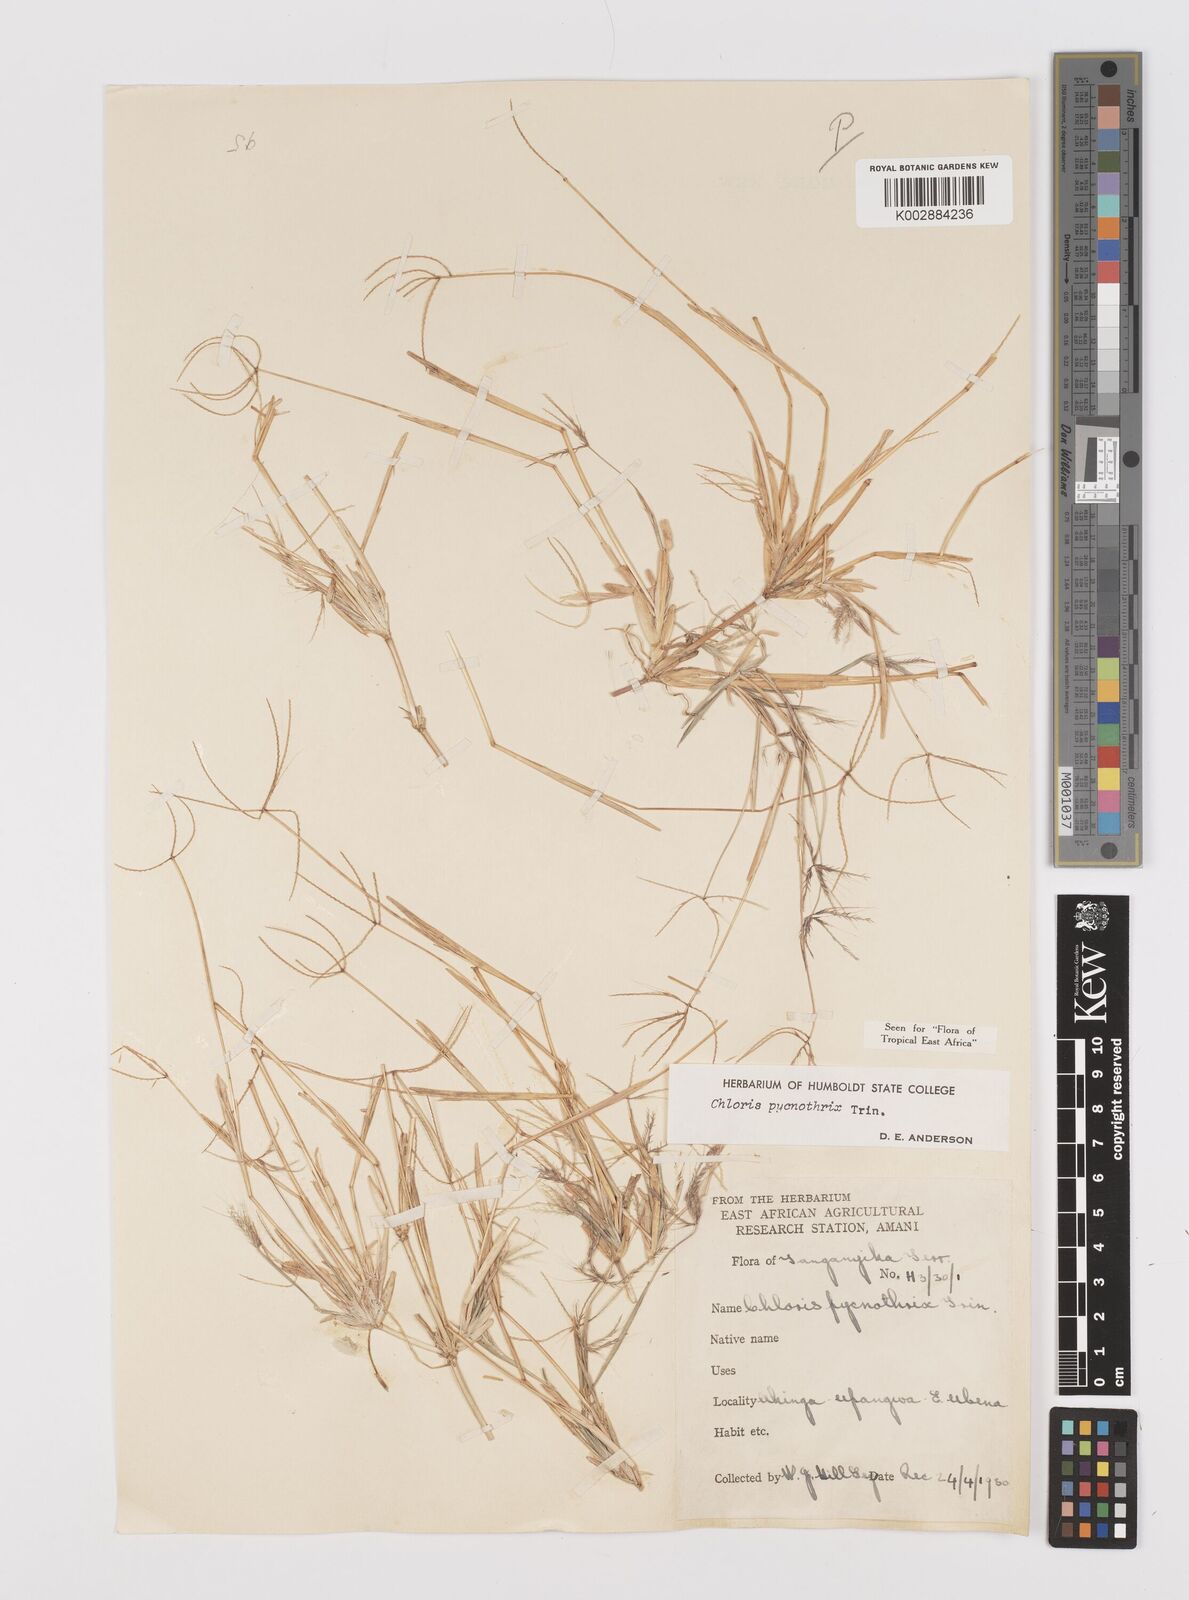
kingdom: Plantae
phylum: Tracheophyta
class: Liliopsida
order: Poales
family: Poaceae
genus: Chloris
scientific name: Chloris pycnothrix
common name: Spiderweb chloris
